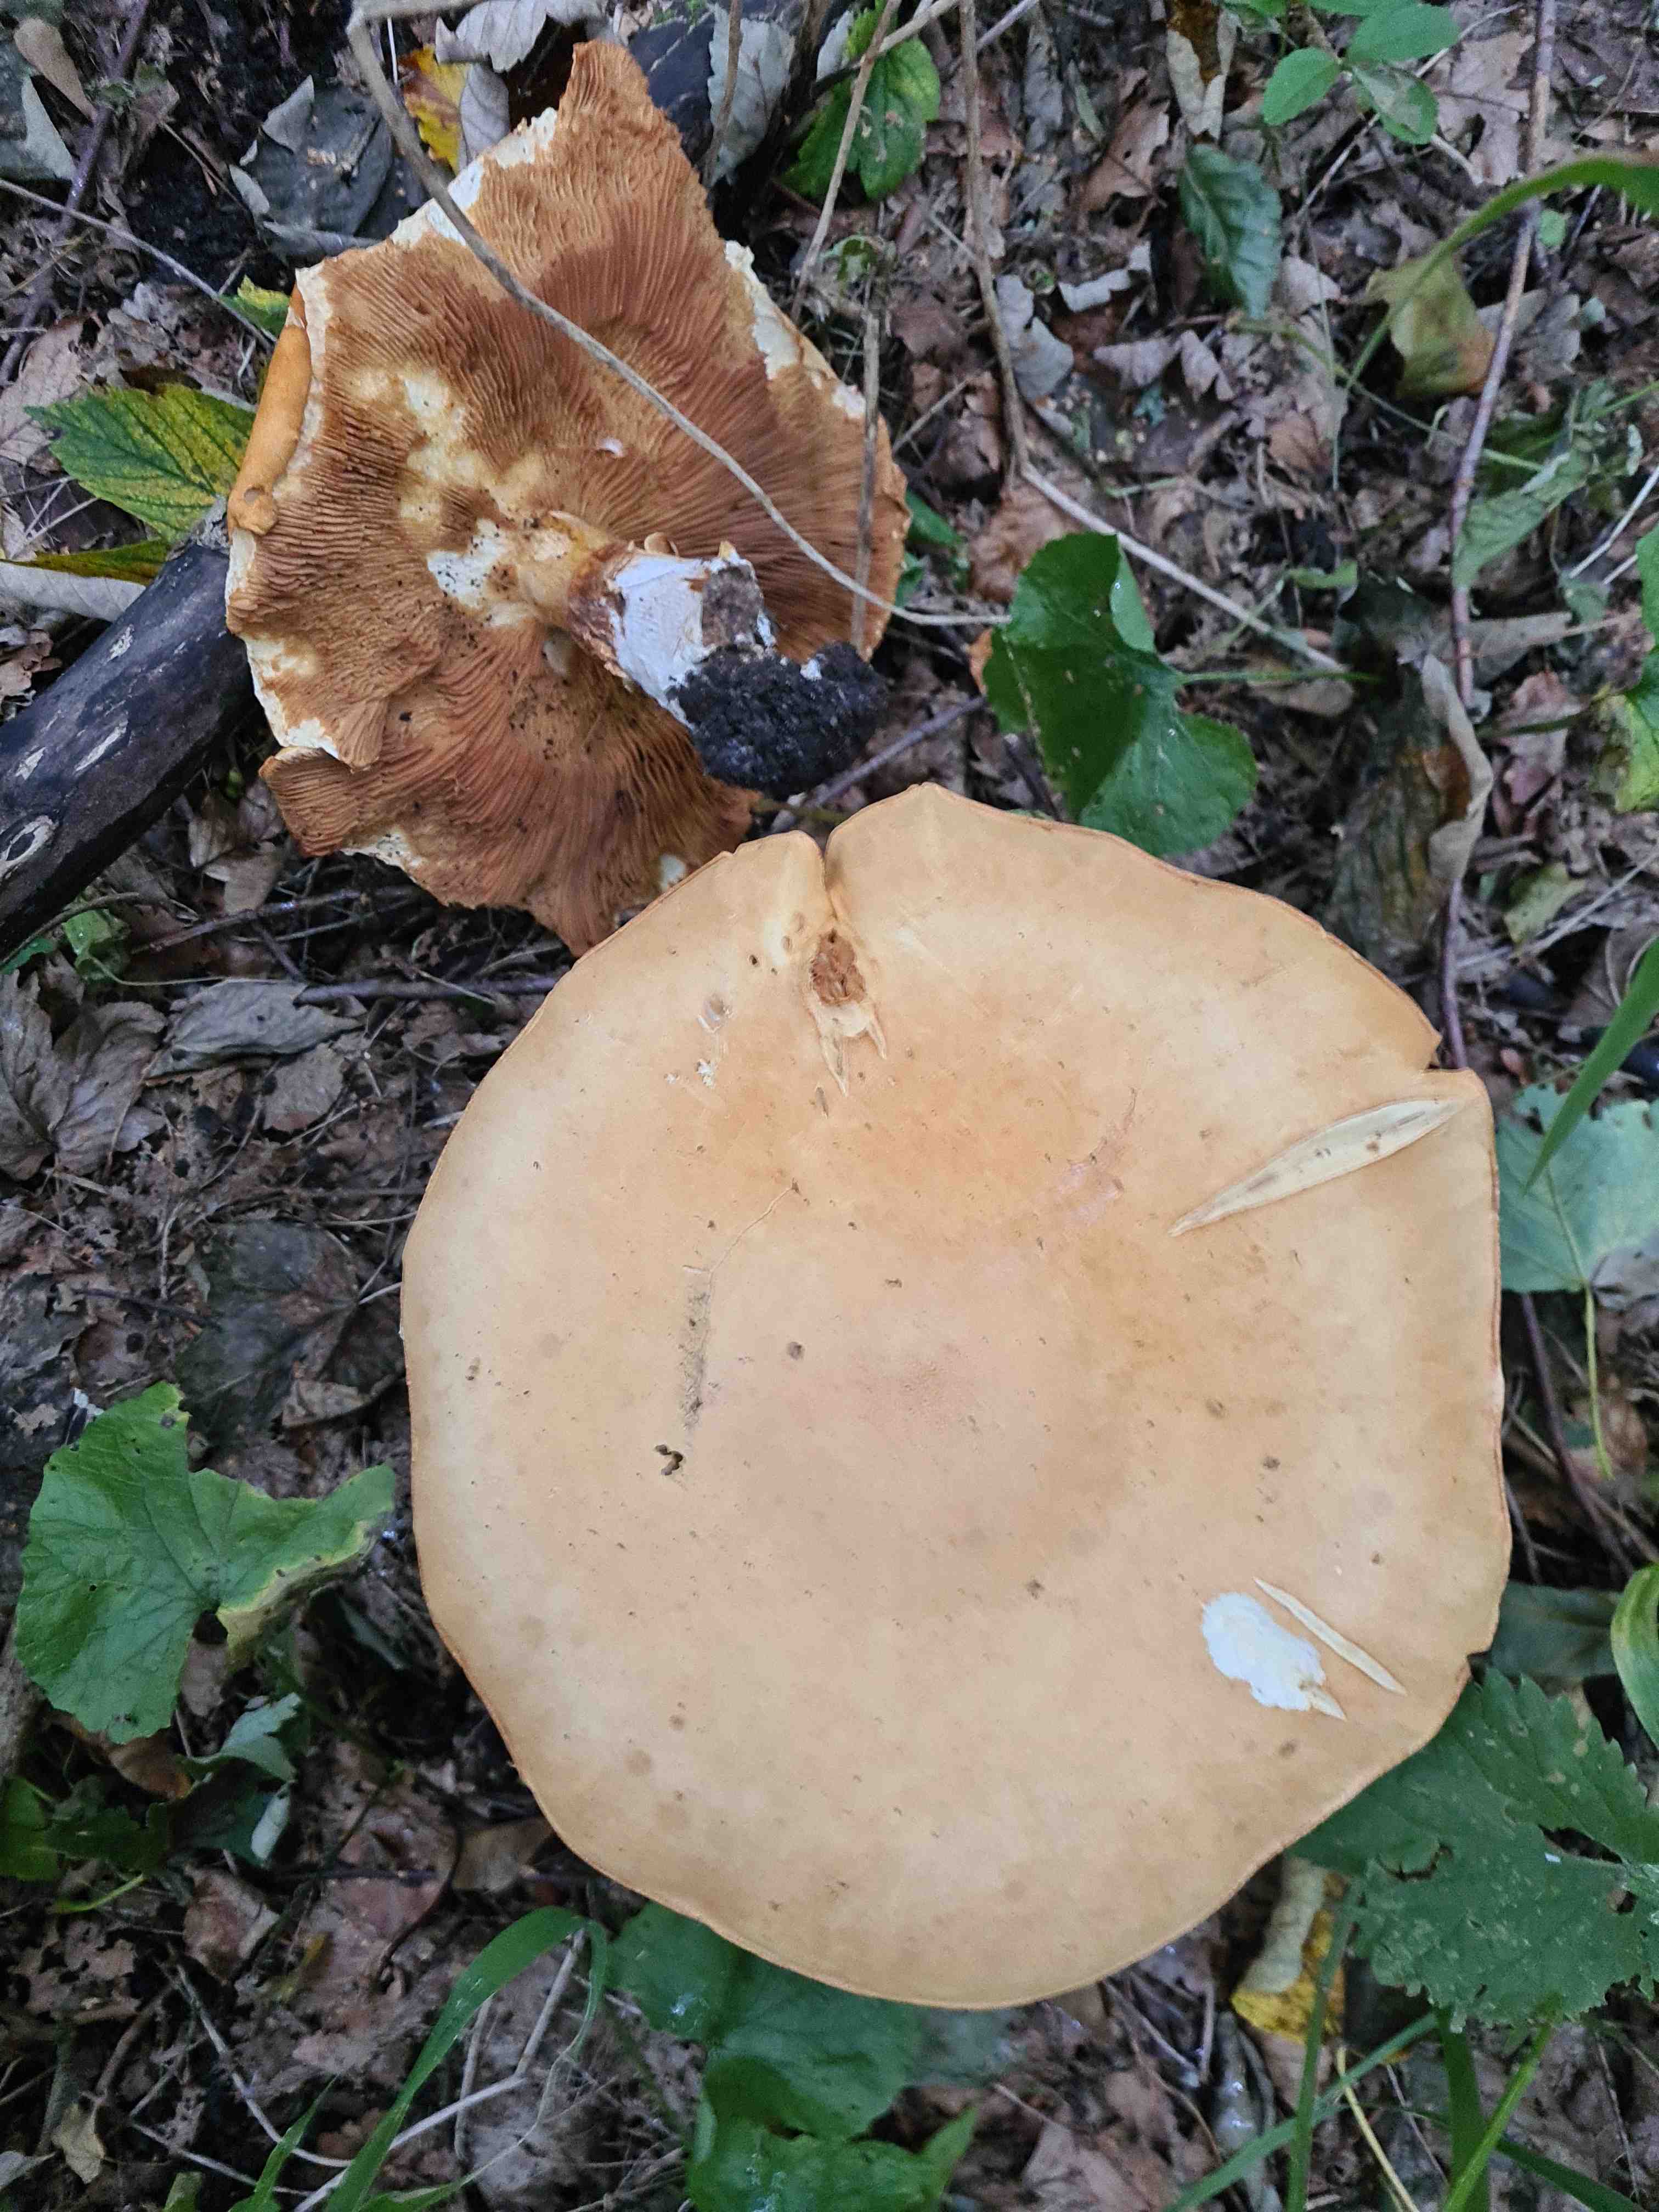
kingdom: Fungi
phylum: Basidiomycota
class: Agaricomycetes
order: Agaricales
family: Tricholomataceae
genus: Phaeolepiota
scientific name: Phaeolepiota aurea
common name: gyldenhat
